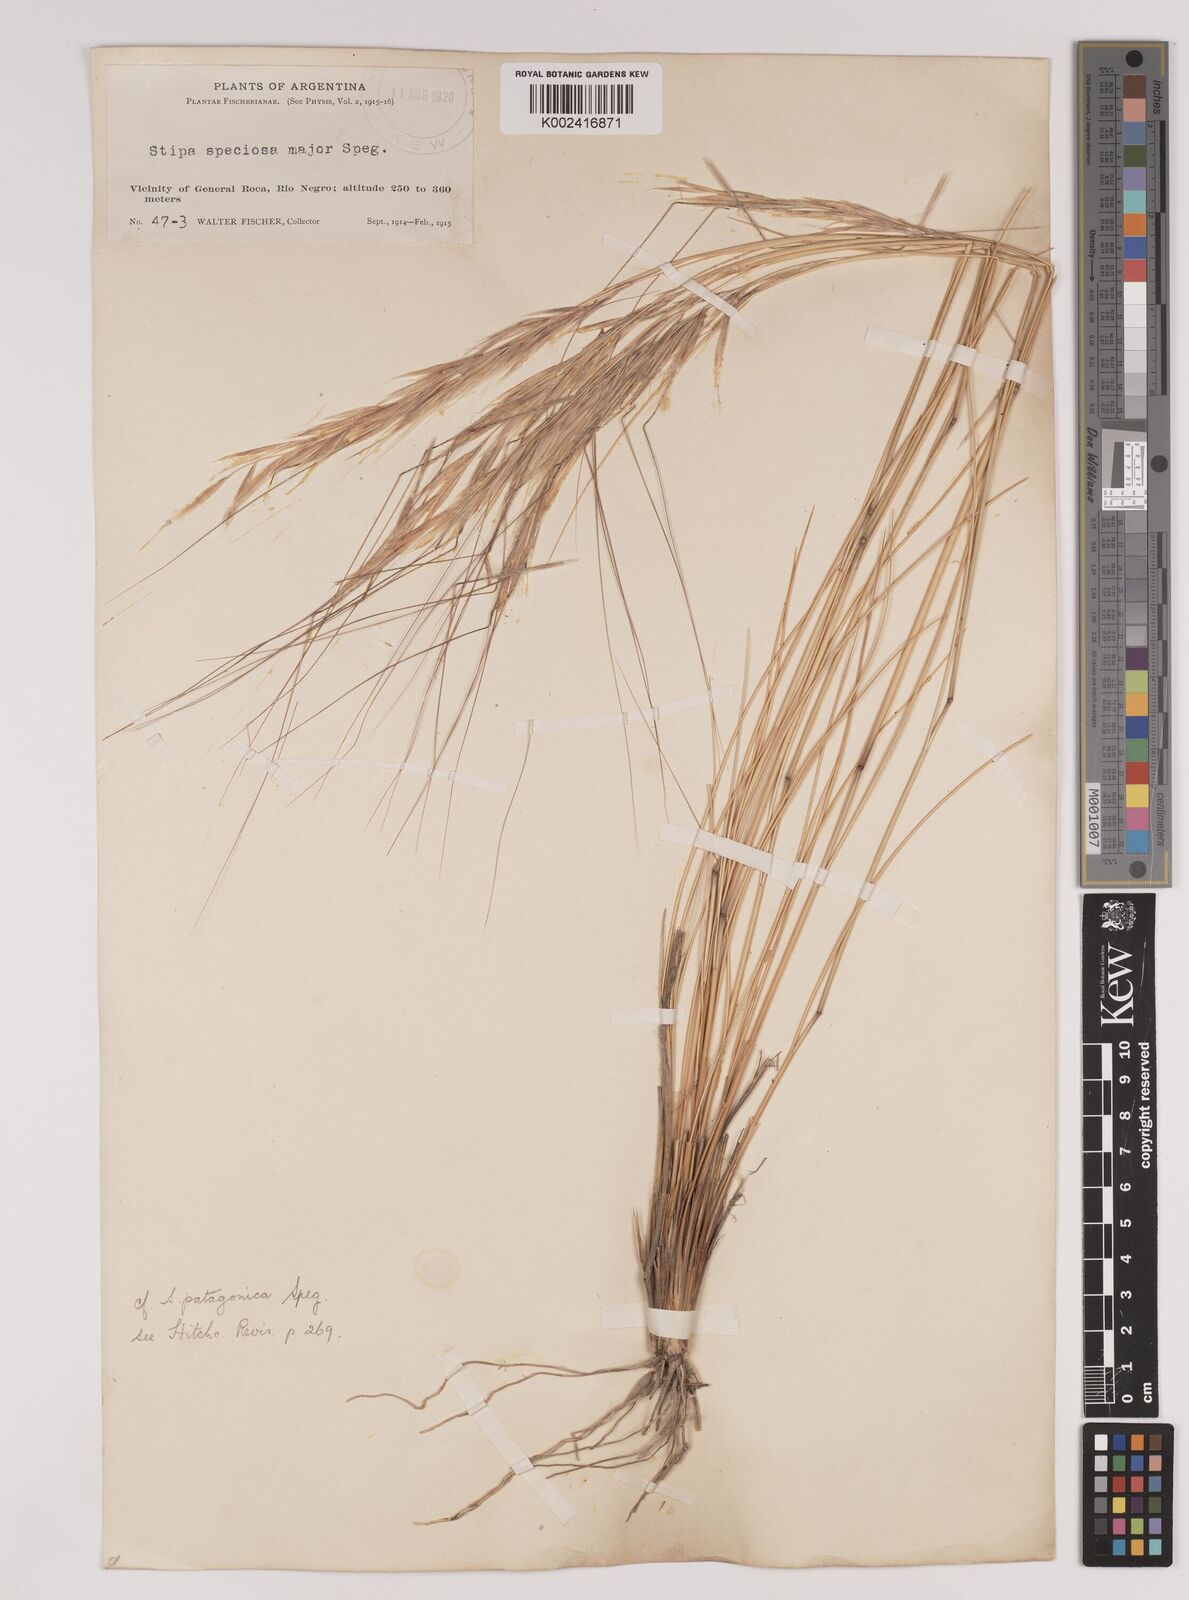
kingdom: Plantae
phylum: Tracheophyta
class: Liliopsida
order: Poales
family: Poaceae
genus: Pappostipa
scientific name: Pappostipa patagonica
